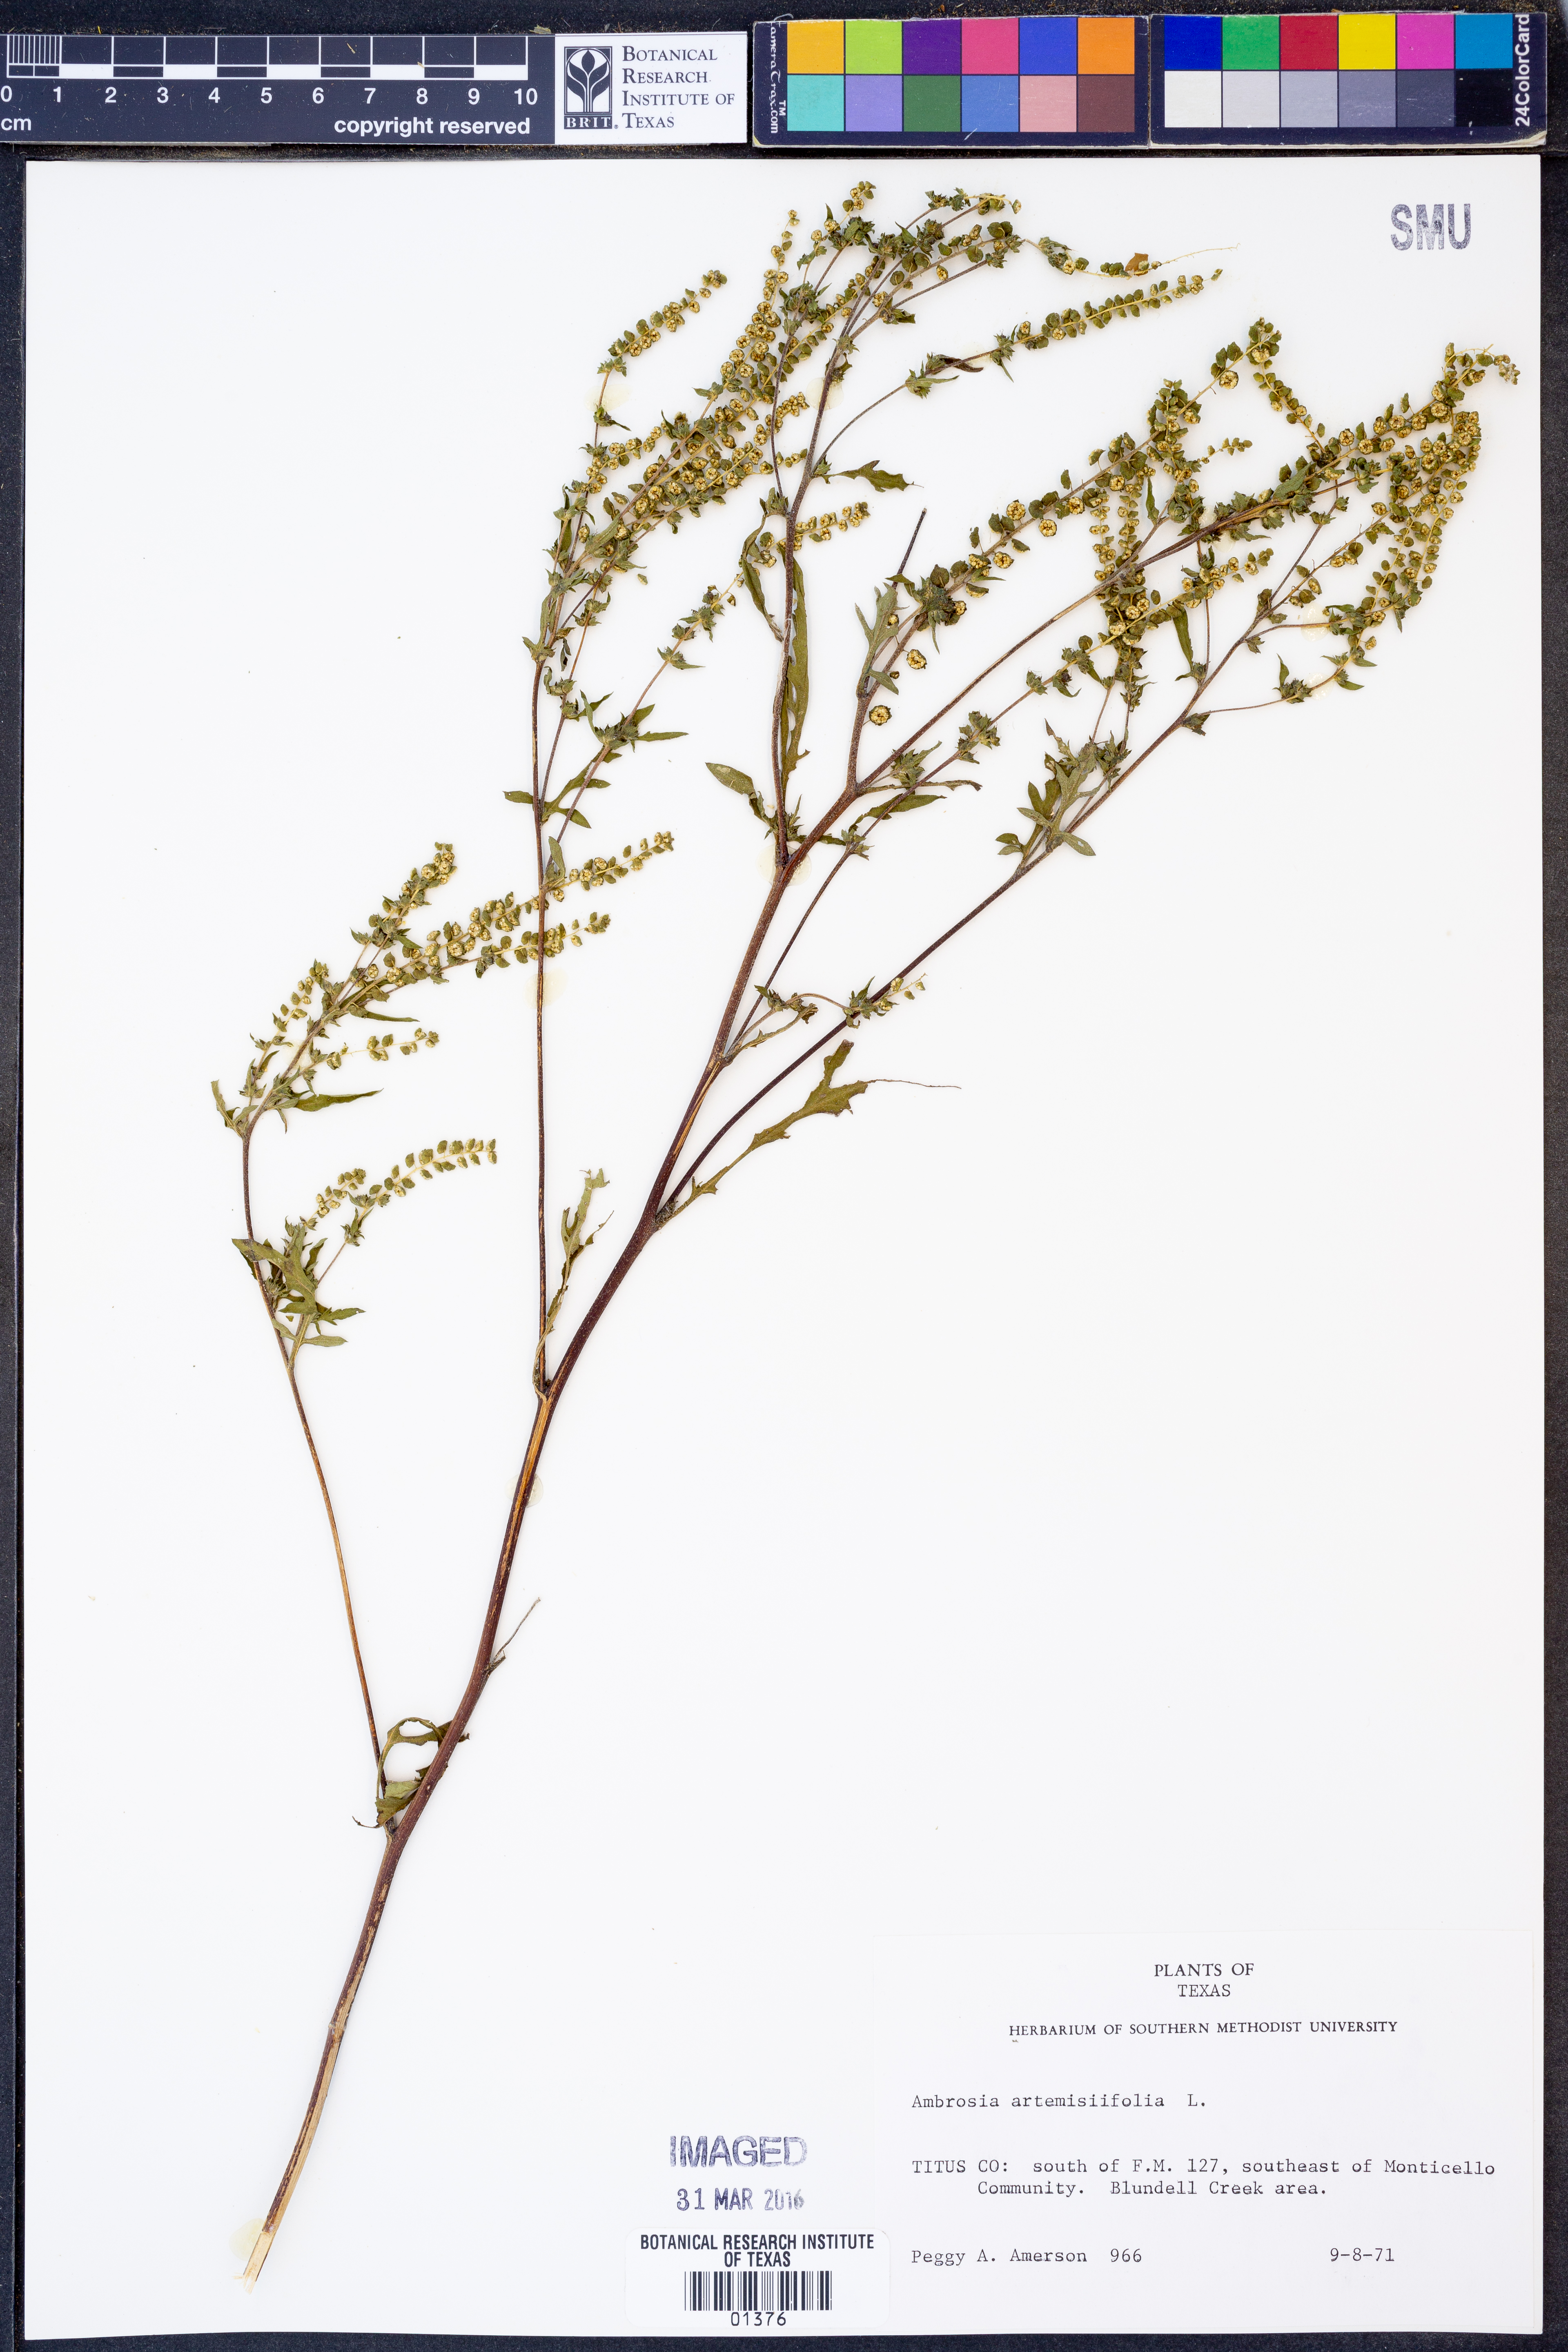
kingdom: Plantae
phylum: Tracheophyta
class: Magnoliopsida
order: Asterales
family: Asteraceae
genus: Ambrosia
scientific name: Ambrosia artemisiifolia
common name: Annual ragweed
